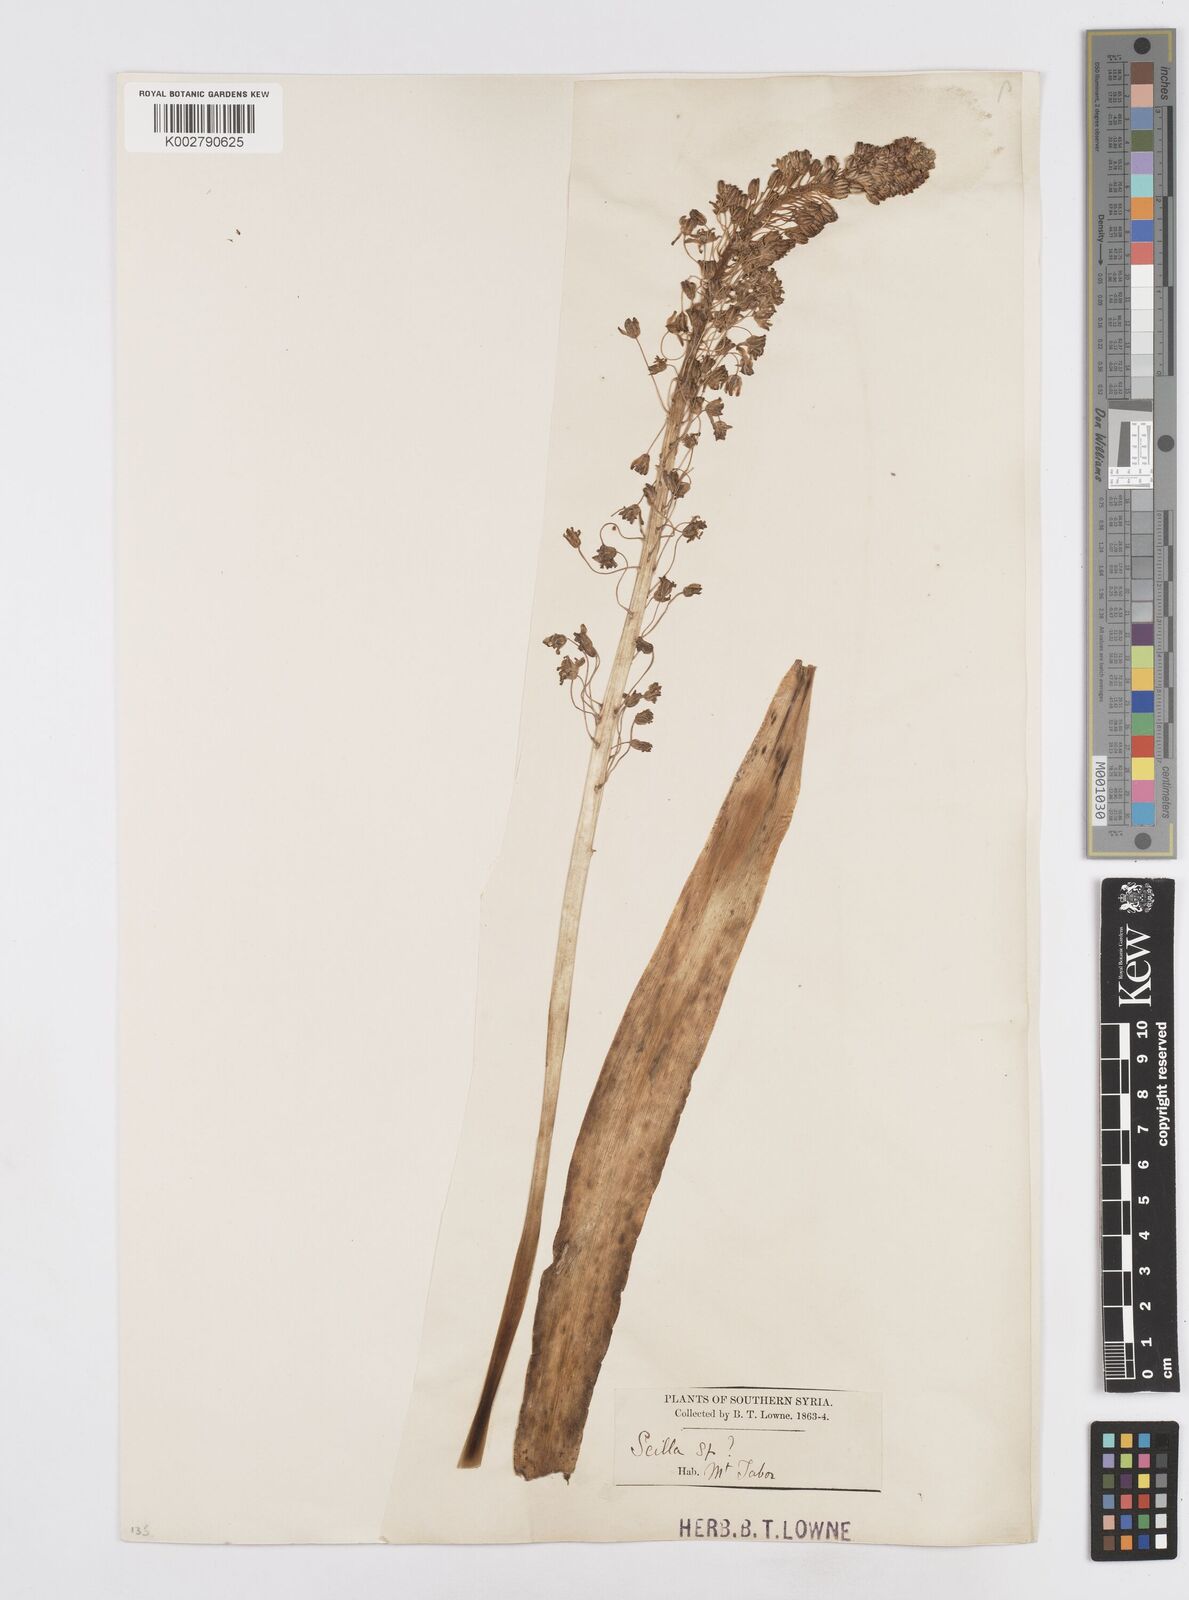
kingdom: Plantae
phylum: Tracheophyta
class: Liliopsida
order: Asparagales
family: Asparagaceae
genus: Scilla
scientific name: Scilla hyacinthoides
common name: Scilla
